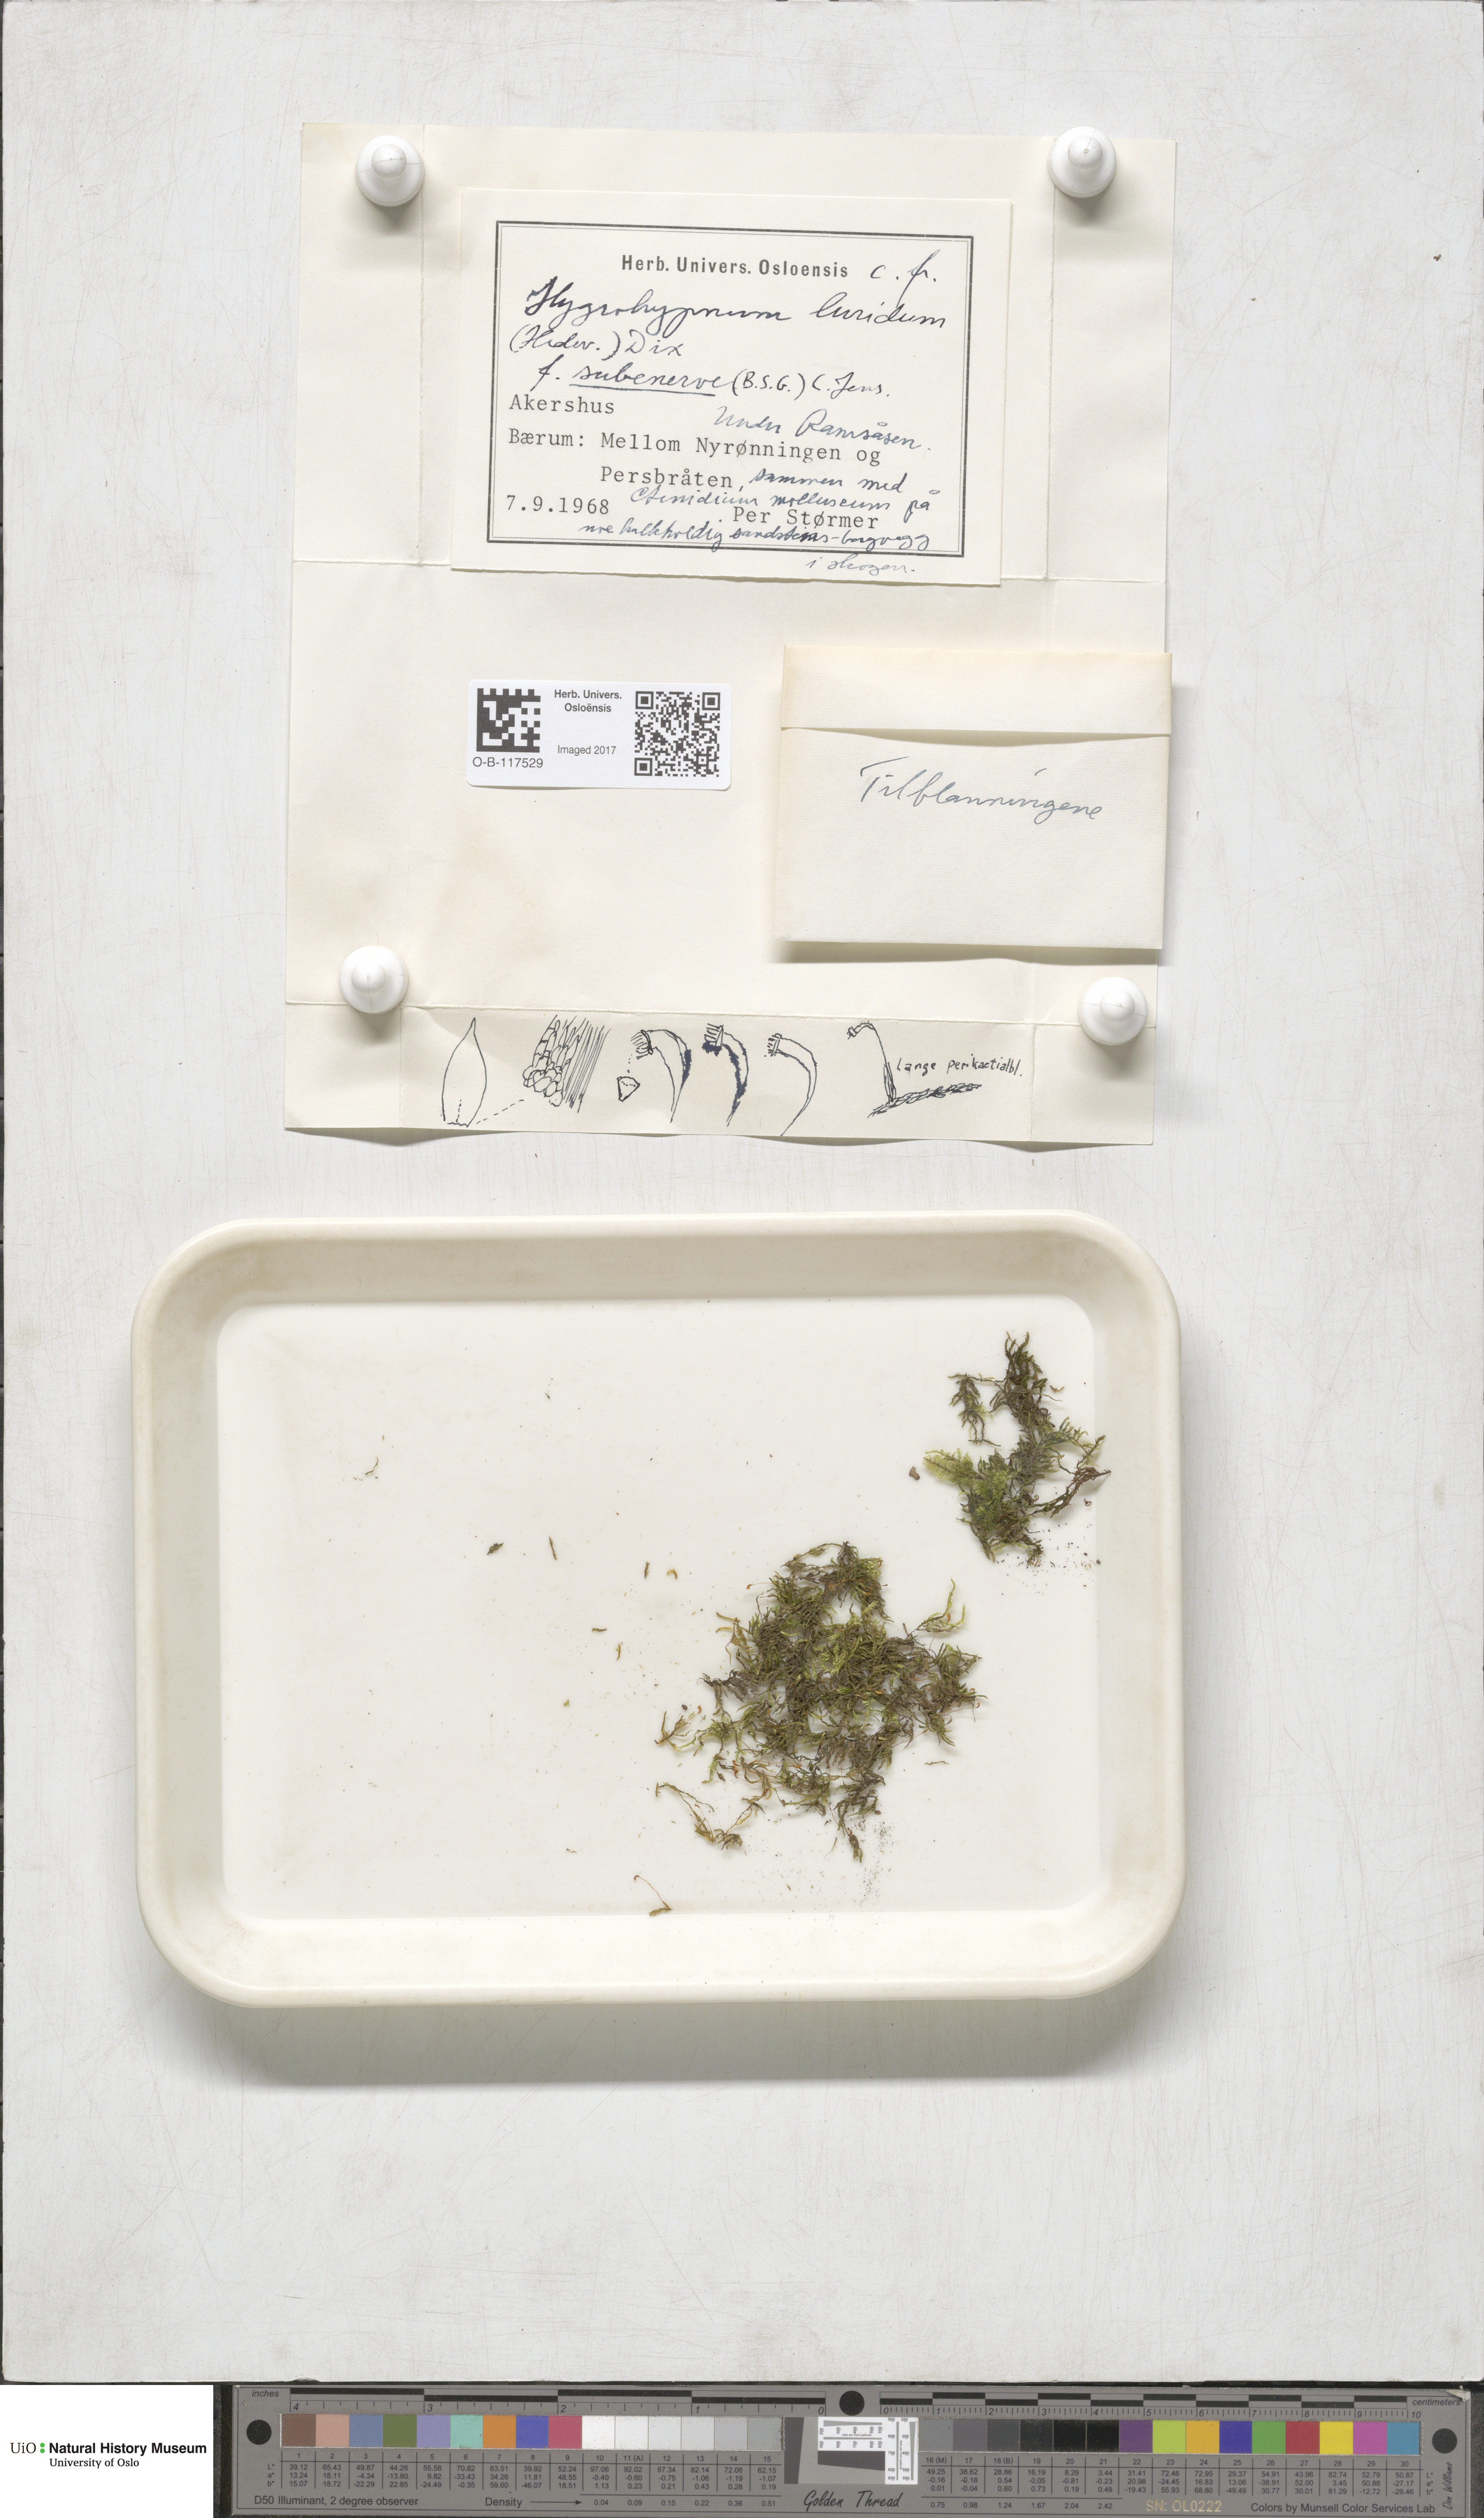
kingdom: Plantae
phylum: Bryophyta
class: Bryopsida
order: Hypnales
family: Amblystegiaceae
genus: Hygrohypnum
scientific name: Hygrohypnum luridum
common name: Drab brook moss
